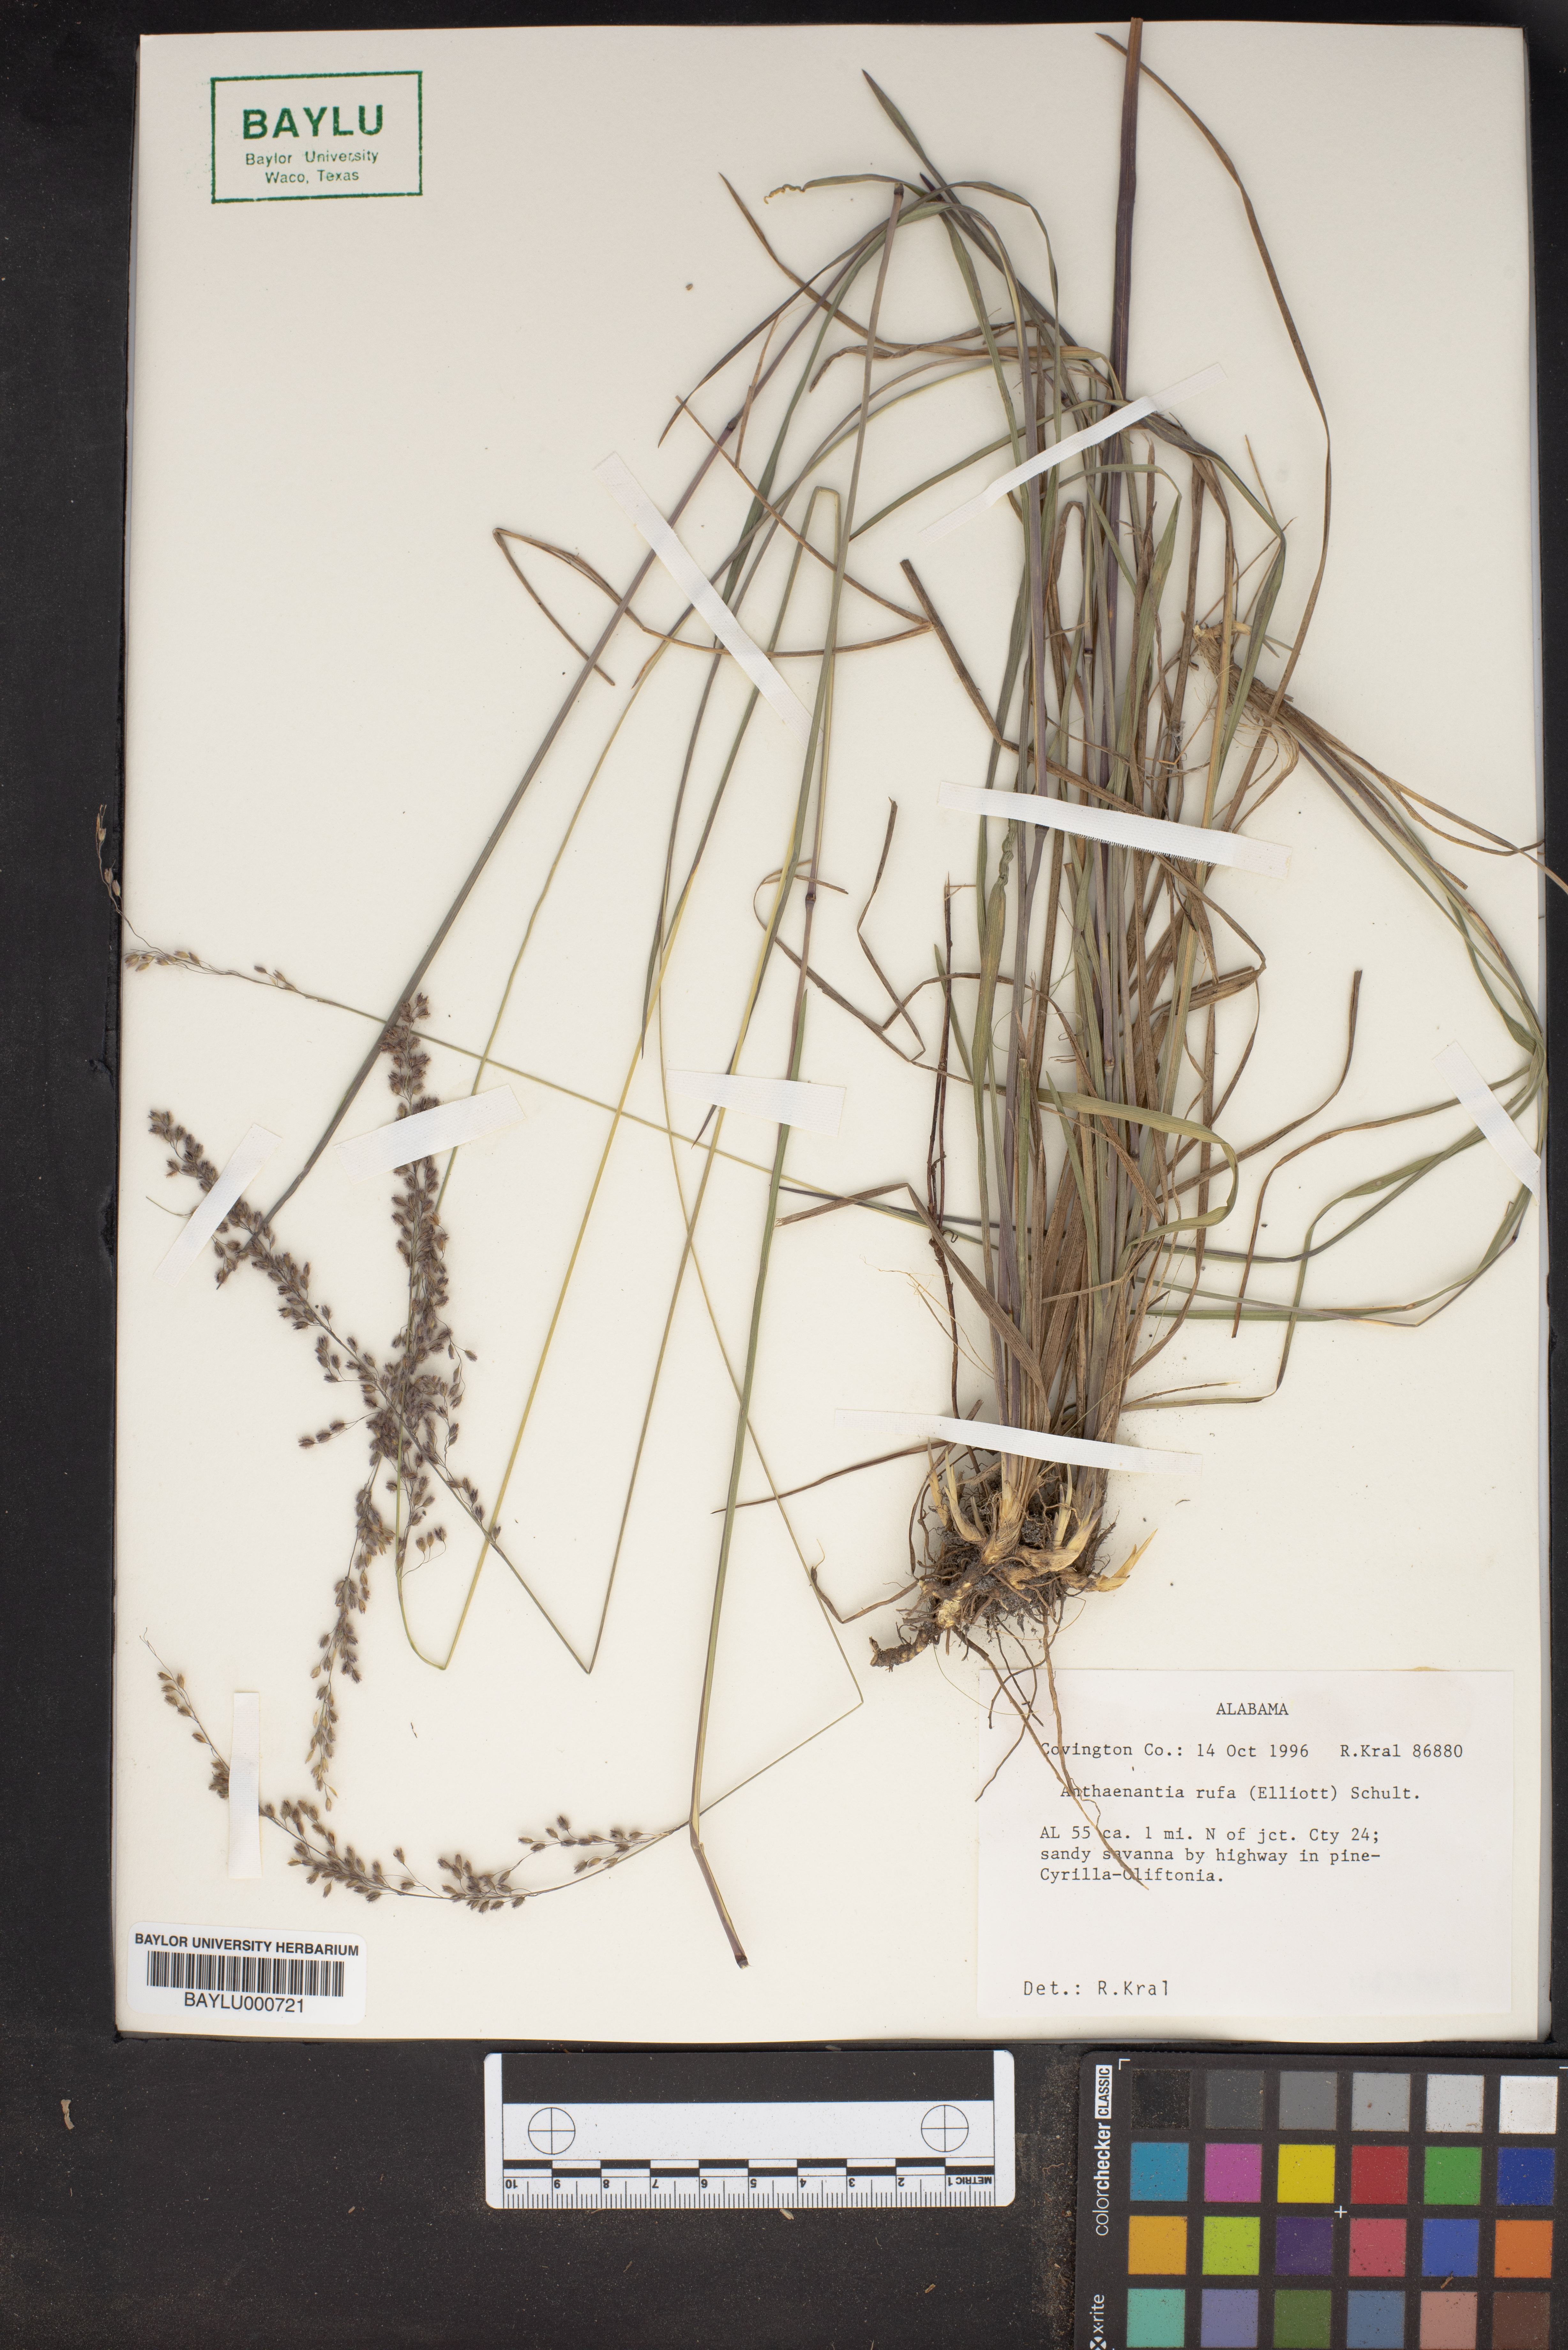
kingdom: Plantae
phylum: Tracheophyta
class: Liliopsida
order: Poales
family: Poaceae
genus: Anthenantia
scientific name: Anthenantia rufa
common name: Purple silkyscale
